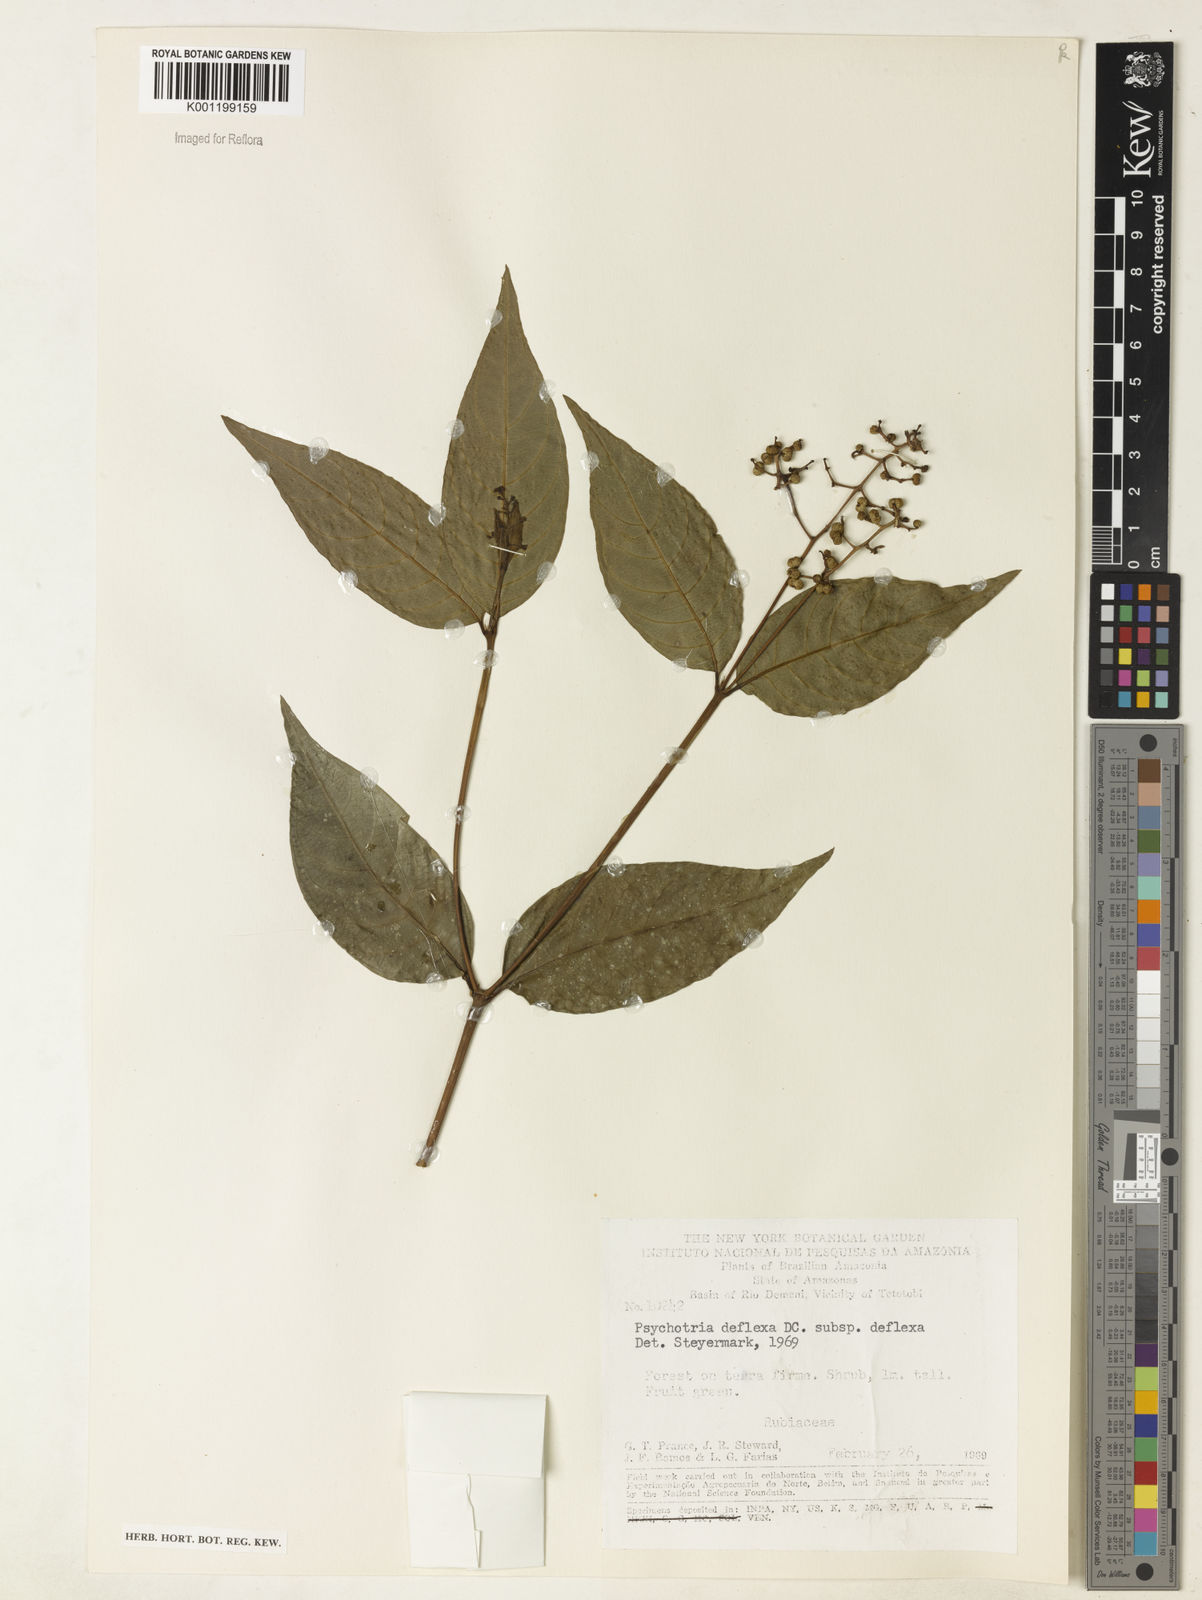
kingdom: Plantae
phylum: Tracheophyta
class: Magnoliopsida
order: Gentianales
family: Rubiaceae
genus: Palicourea
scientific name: Palicourea deflexa
